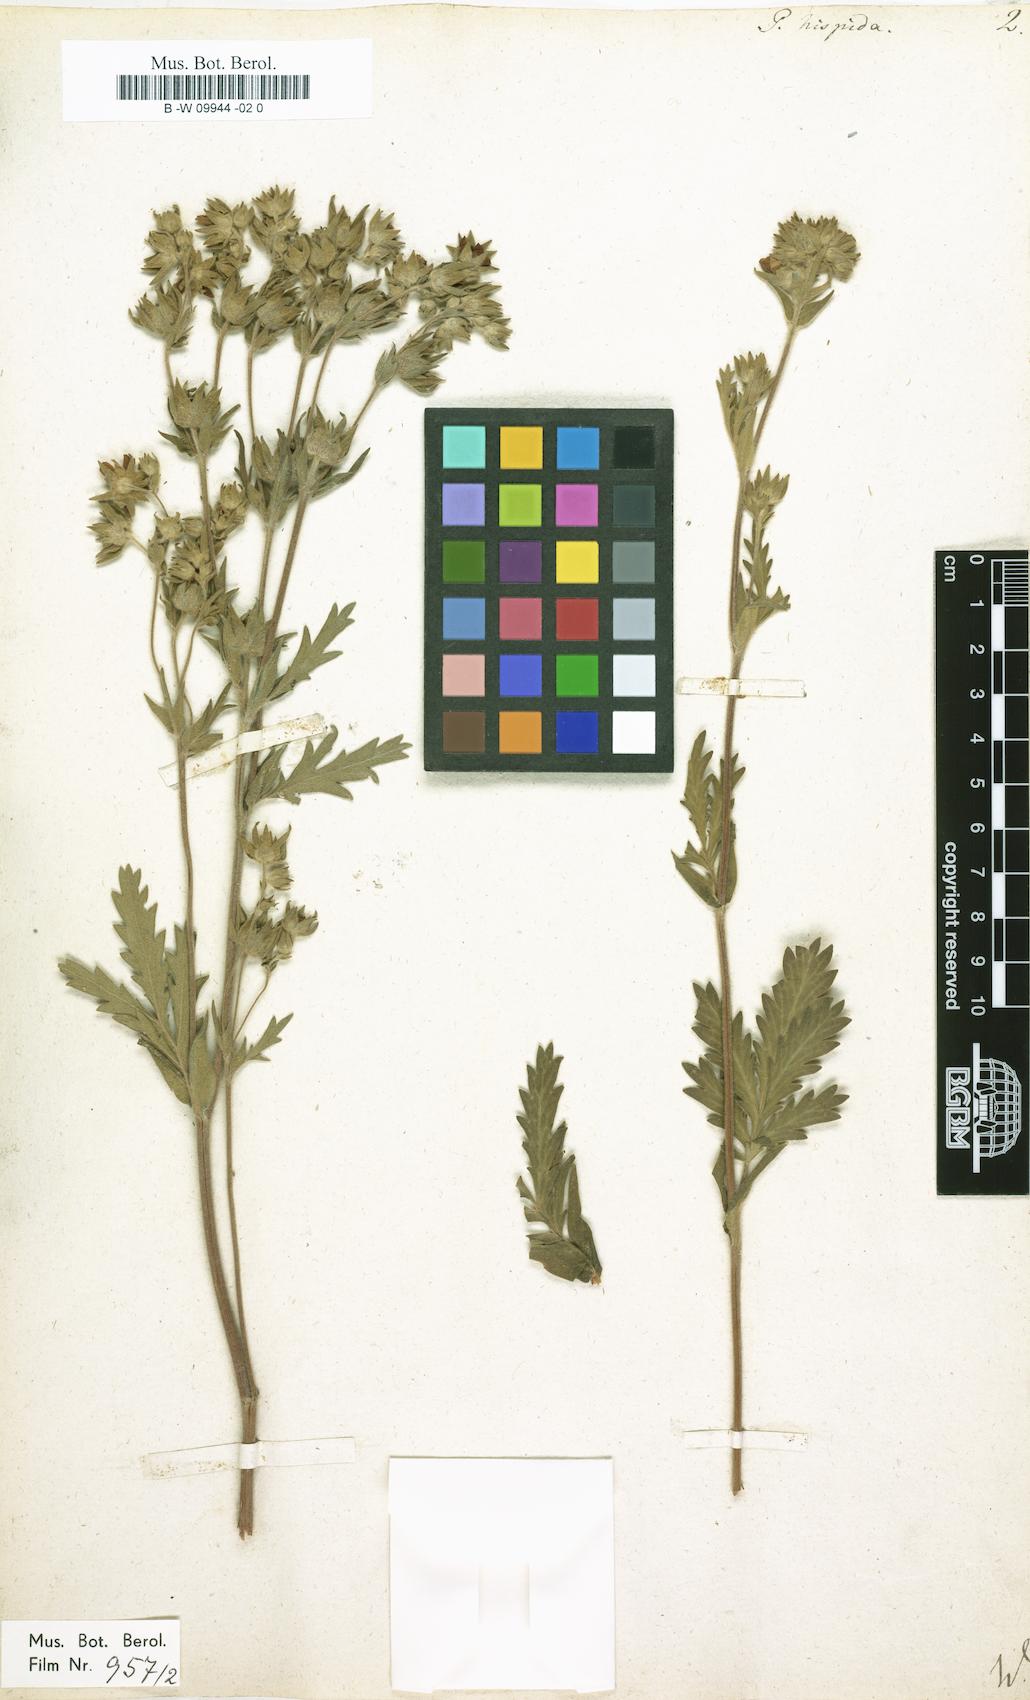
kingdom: Plantae
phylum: Tracheophyta
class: Magnoliopsida
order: Rosales
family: Rosaceae
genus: Potentilla
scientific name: Potentilla
